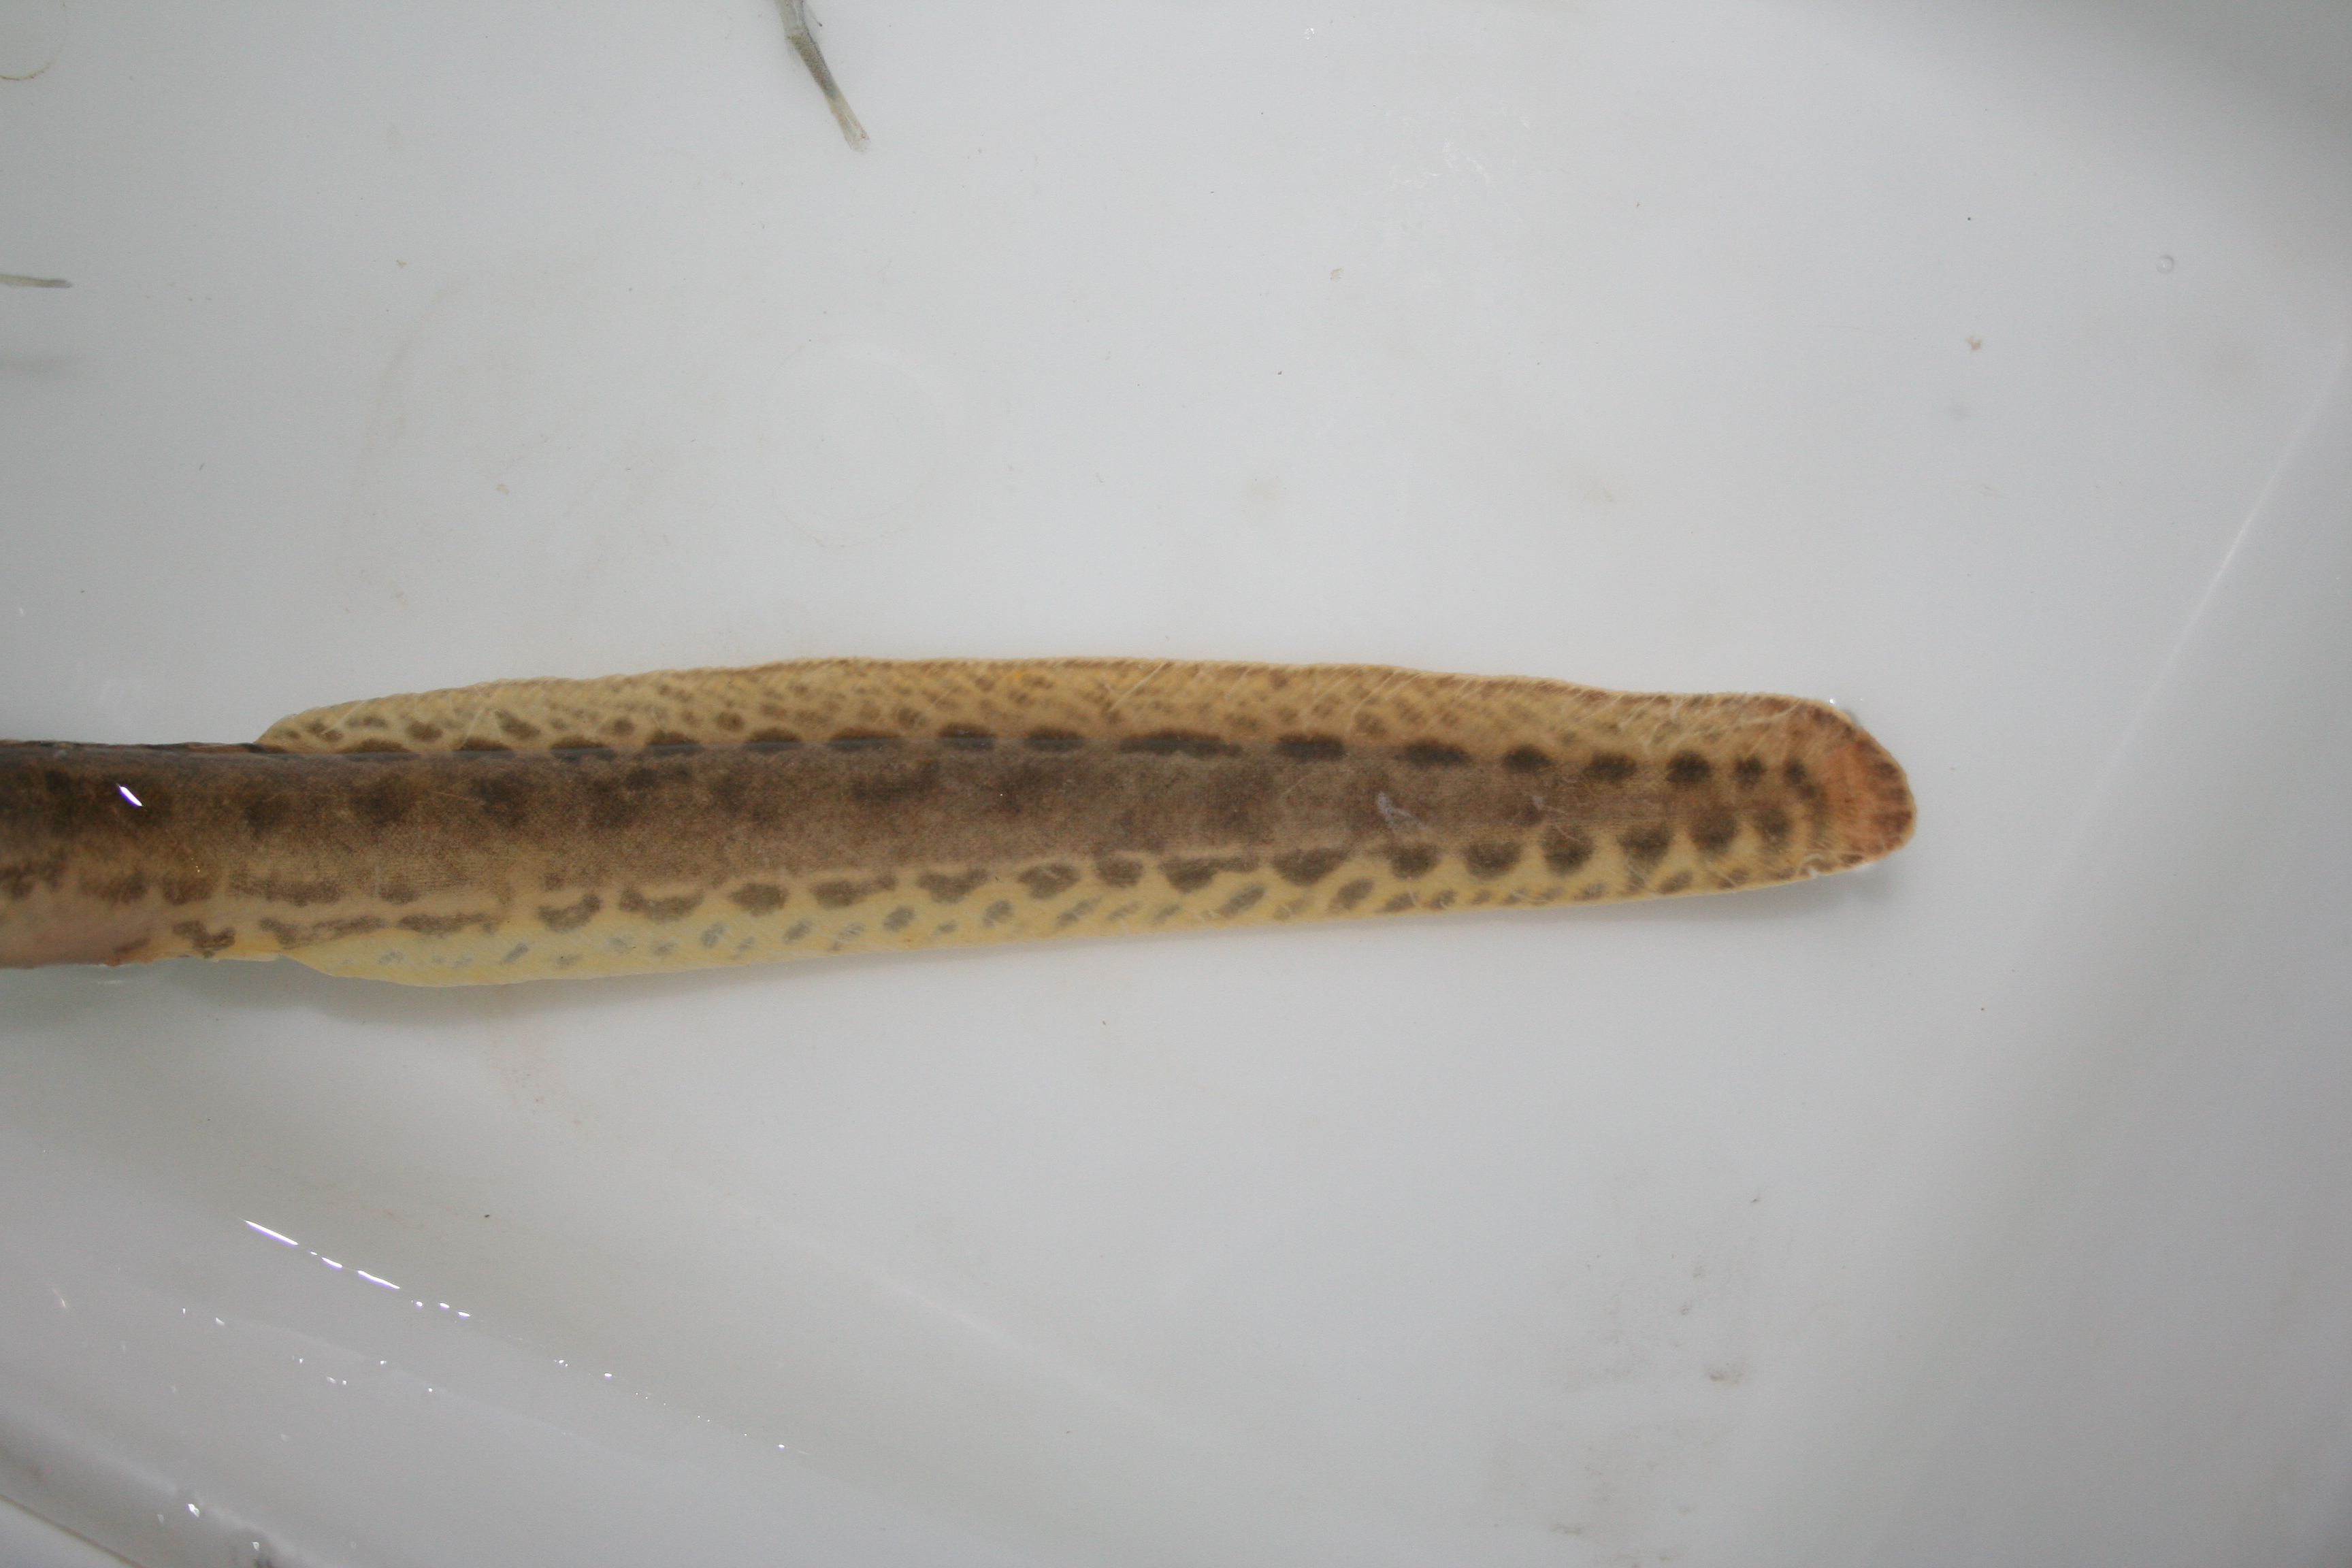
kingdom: Animalia
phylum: Chordata
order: Synbranchiformes
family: Mastacembelidae
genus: Mastacembelus
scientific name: Mastacembelus ansorgii
